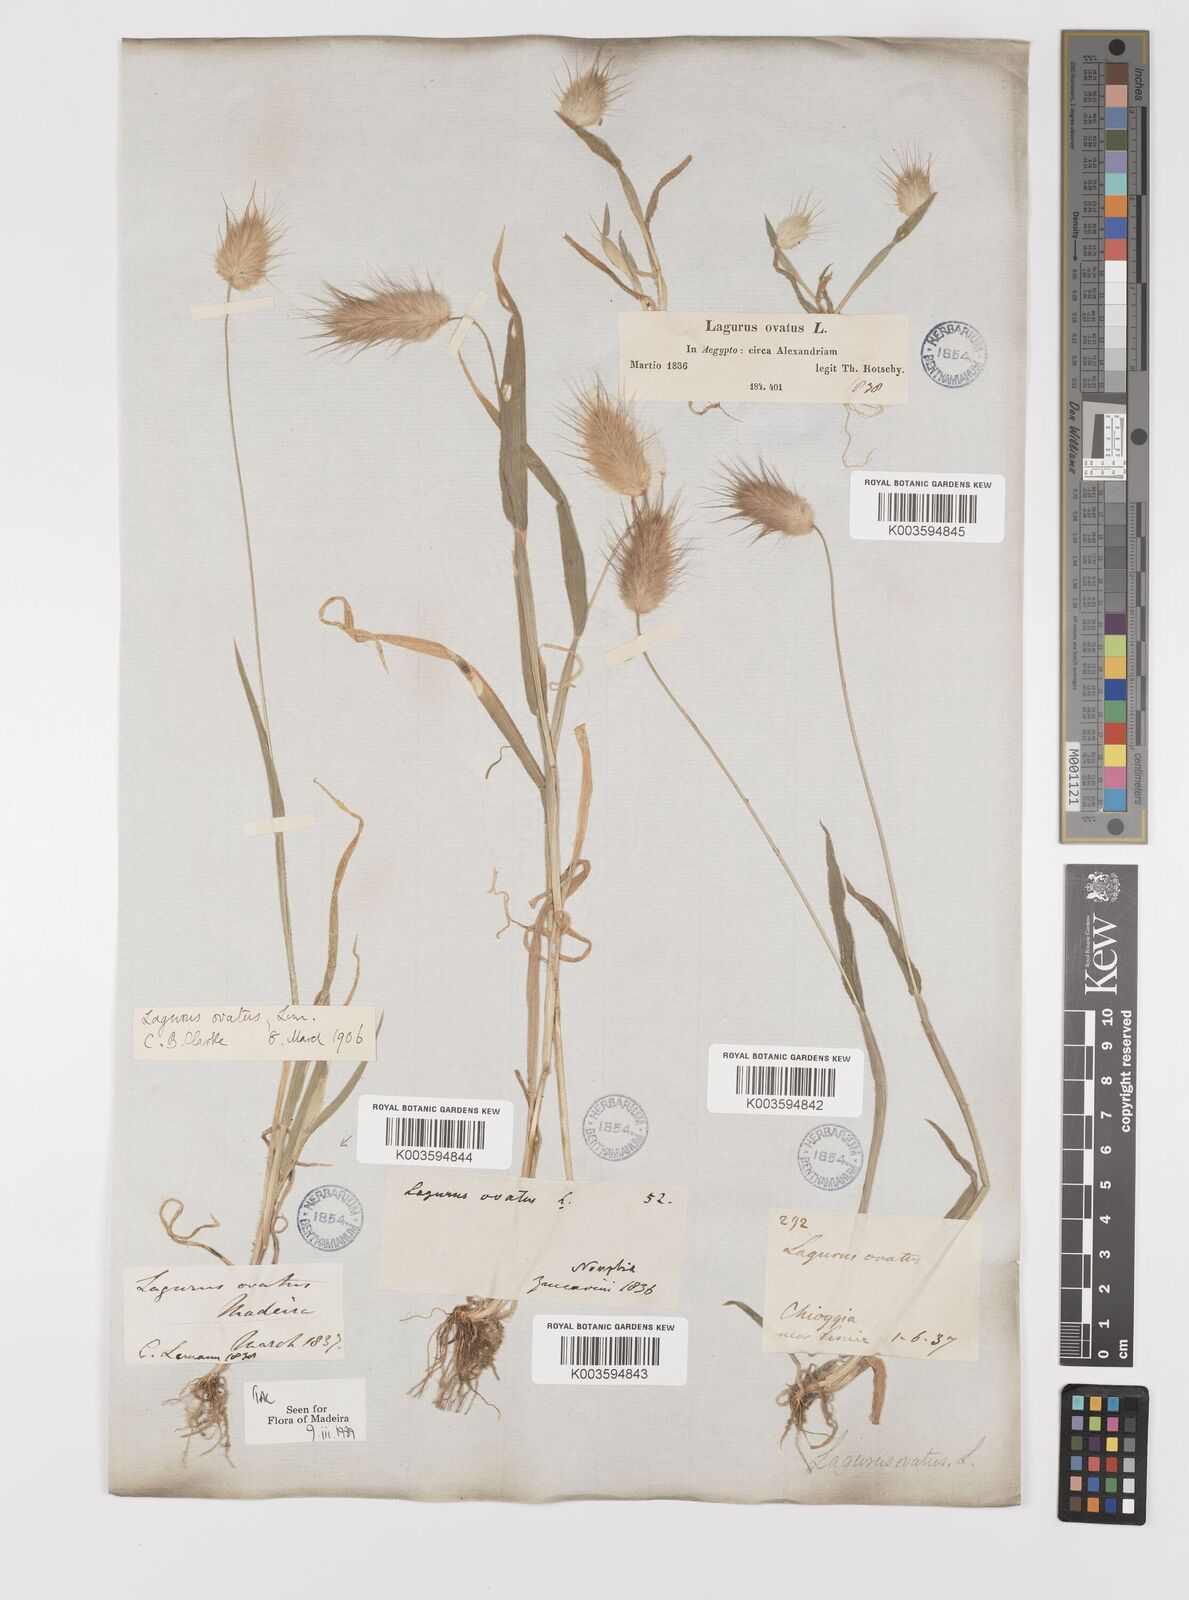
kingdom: Plantae
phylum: Tracheophyta
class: Liliopsida
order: Poales
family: Poaceae
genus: Lagurus
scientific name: Lagurus ovatus
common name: Hare's-tail
